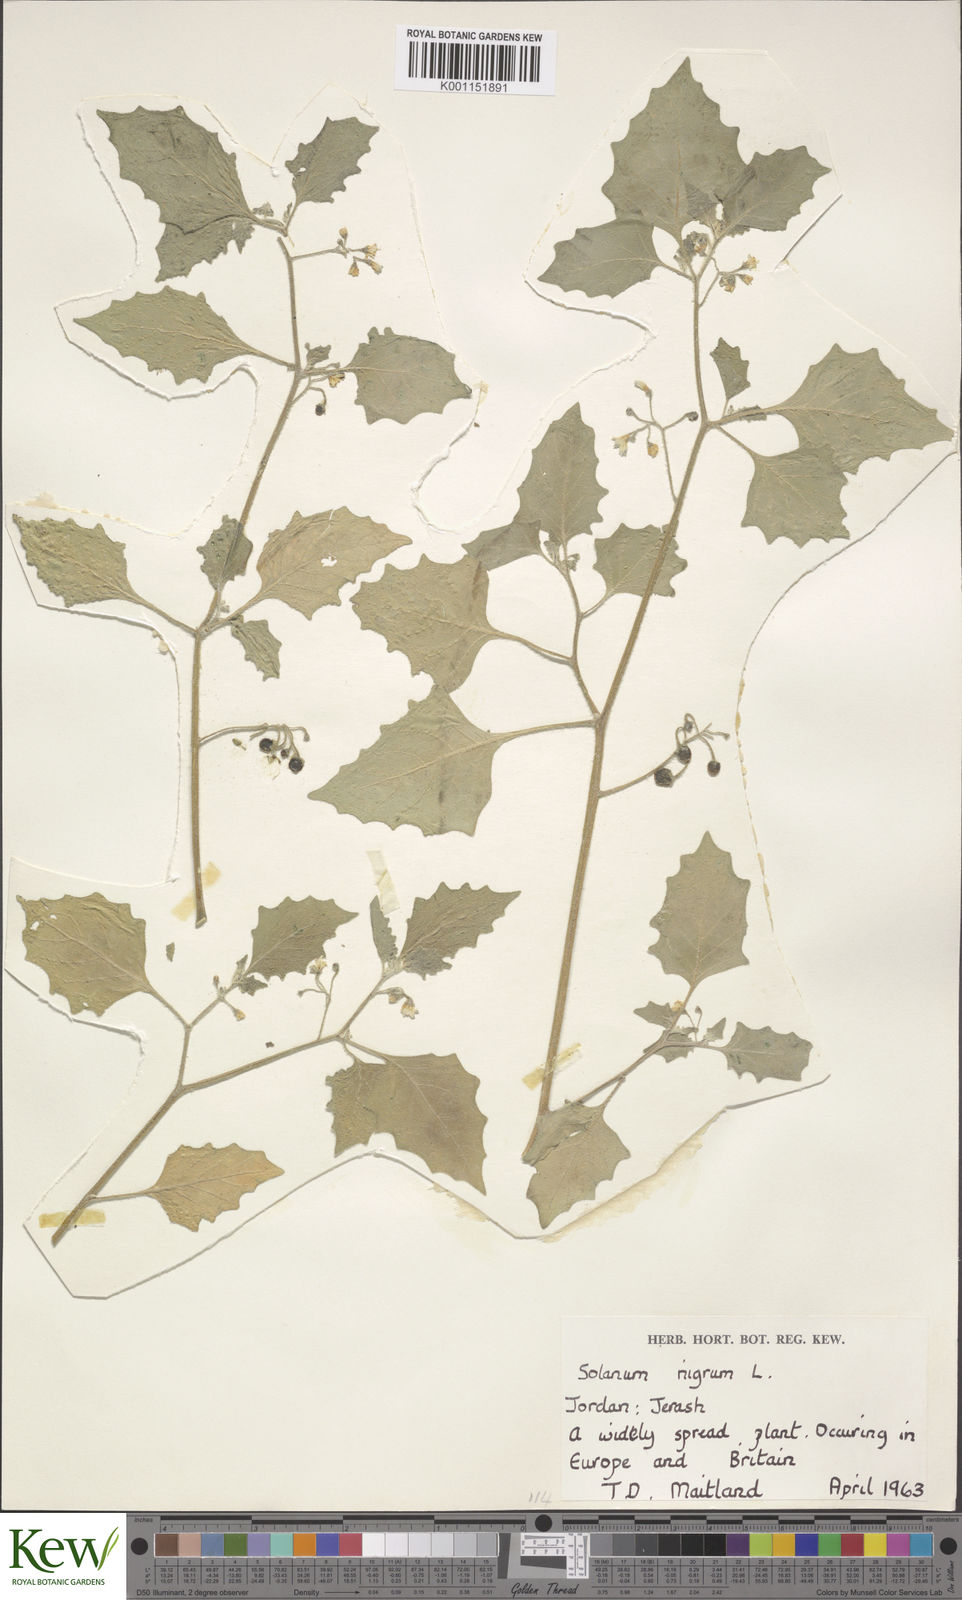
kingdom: Plantae
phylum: Tracheophyta
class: Magnoliopsida
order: Solanales
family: Solanaceae
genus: Solanum
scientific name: Solanum villosum
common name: Red nightshade
